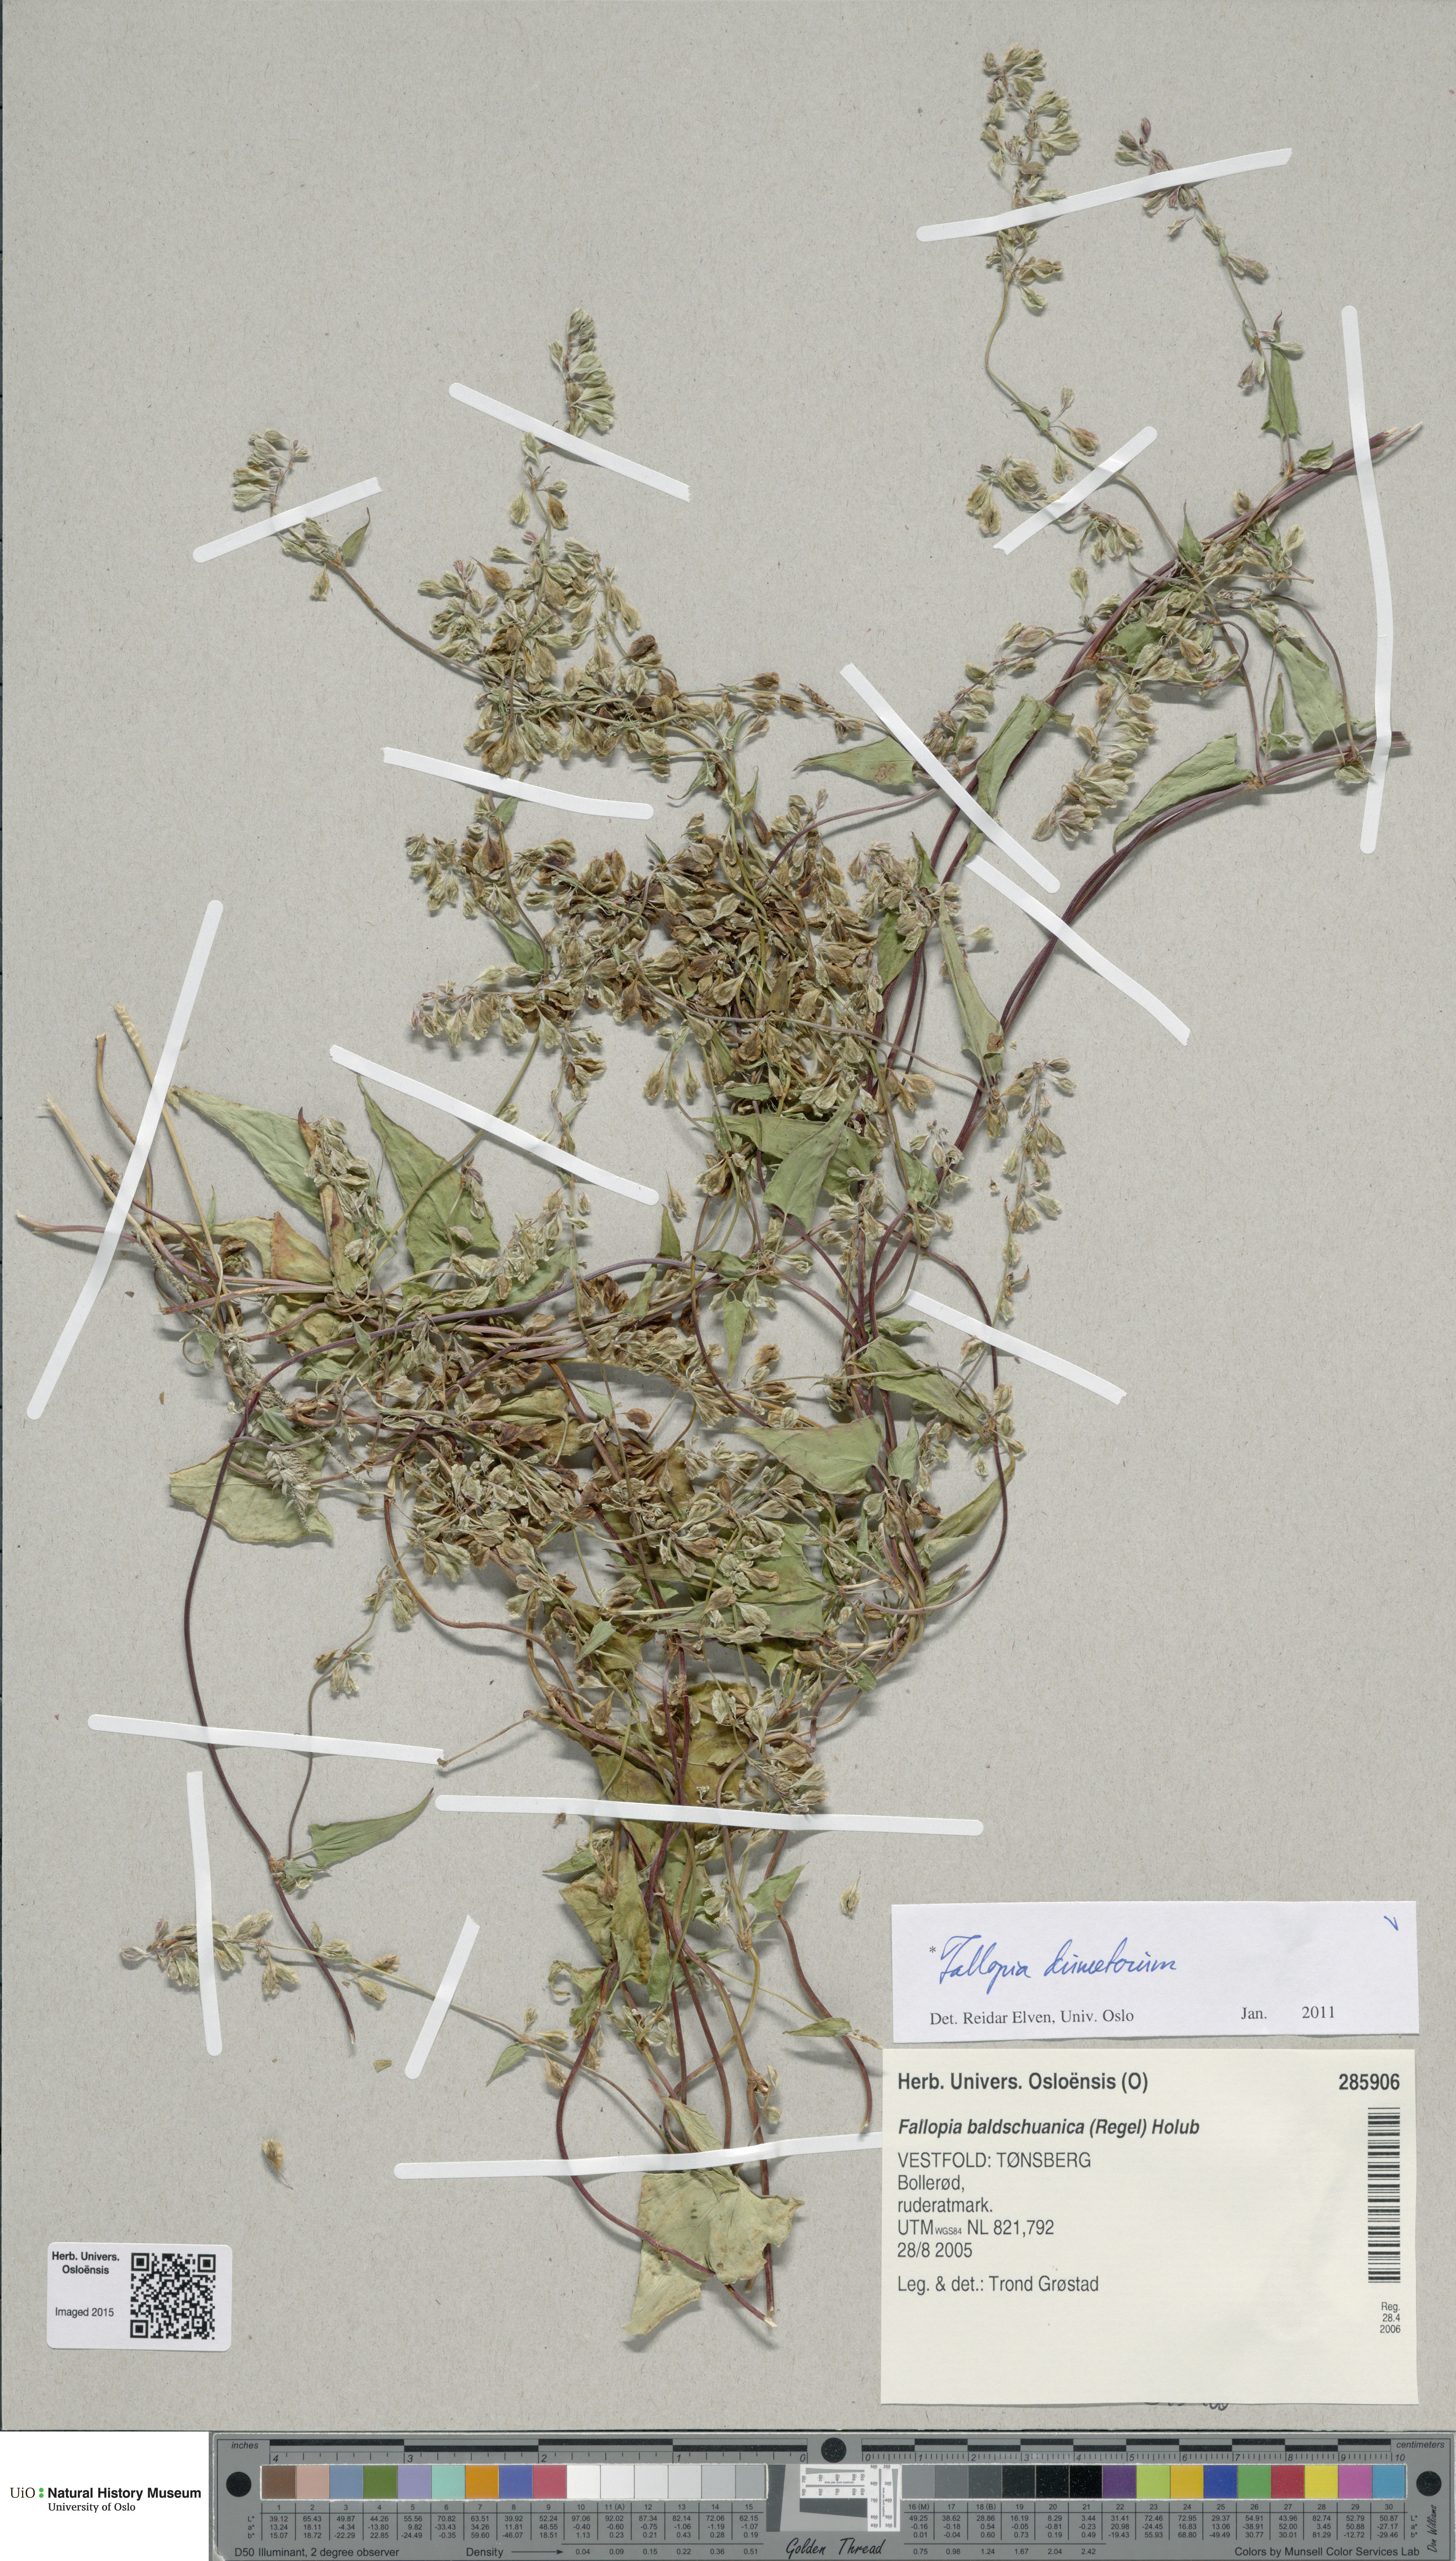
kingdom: Plantae
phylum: Tracheophyta
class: Magnoliopsida
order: Caryophyllales
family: Polygonaceae
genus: Fallopia
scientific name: Fallopia dumetorum
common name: Copse-bindweed
